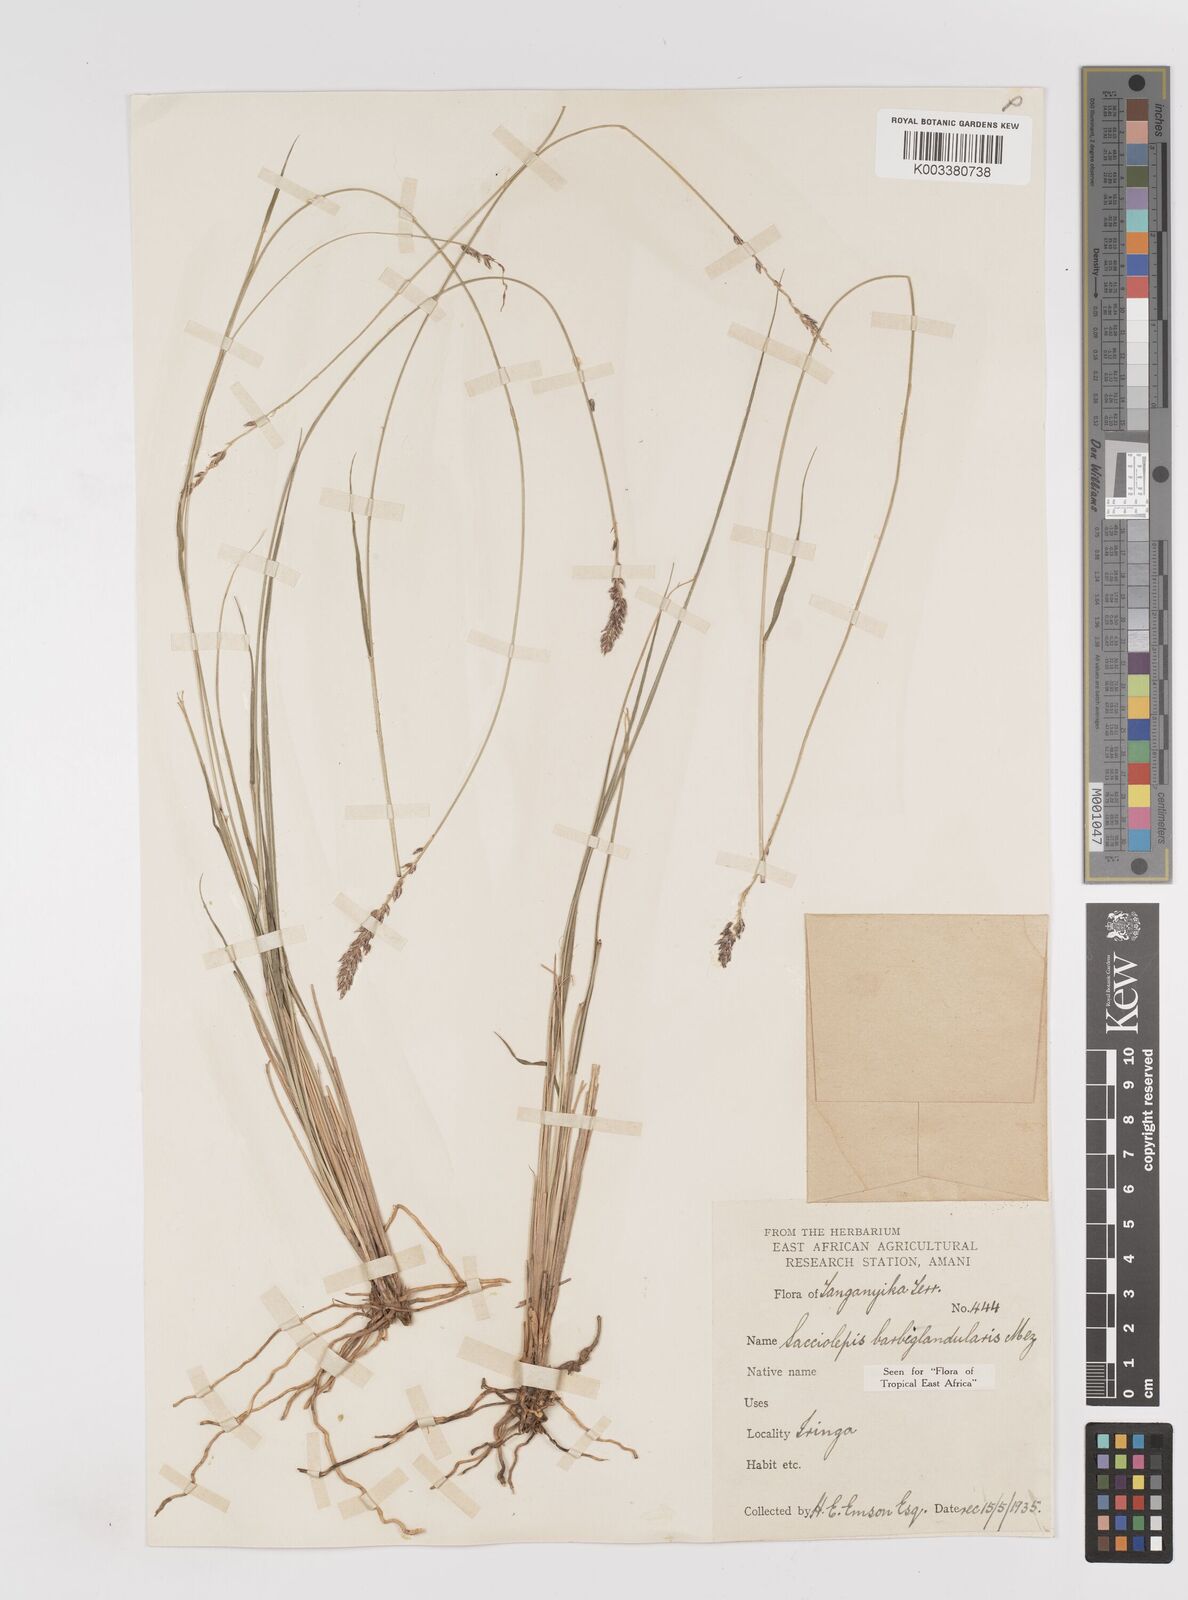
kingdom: Plantae
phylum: Tracheophyta
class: Liliopsida
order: Poales
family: Poaceae
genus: Sacciolepis
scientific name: Sacciolepis transbarbata
